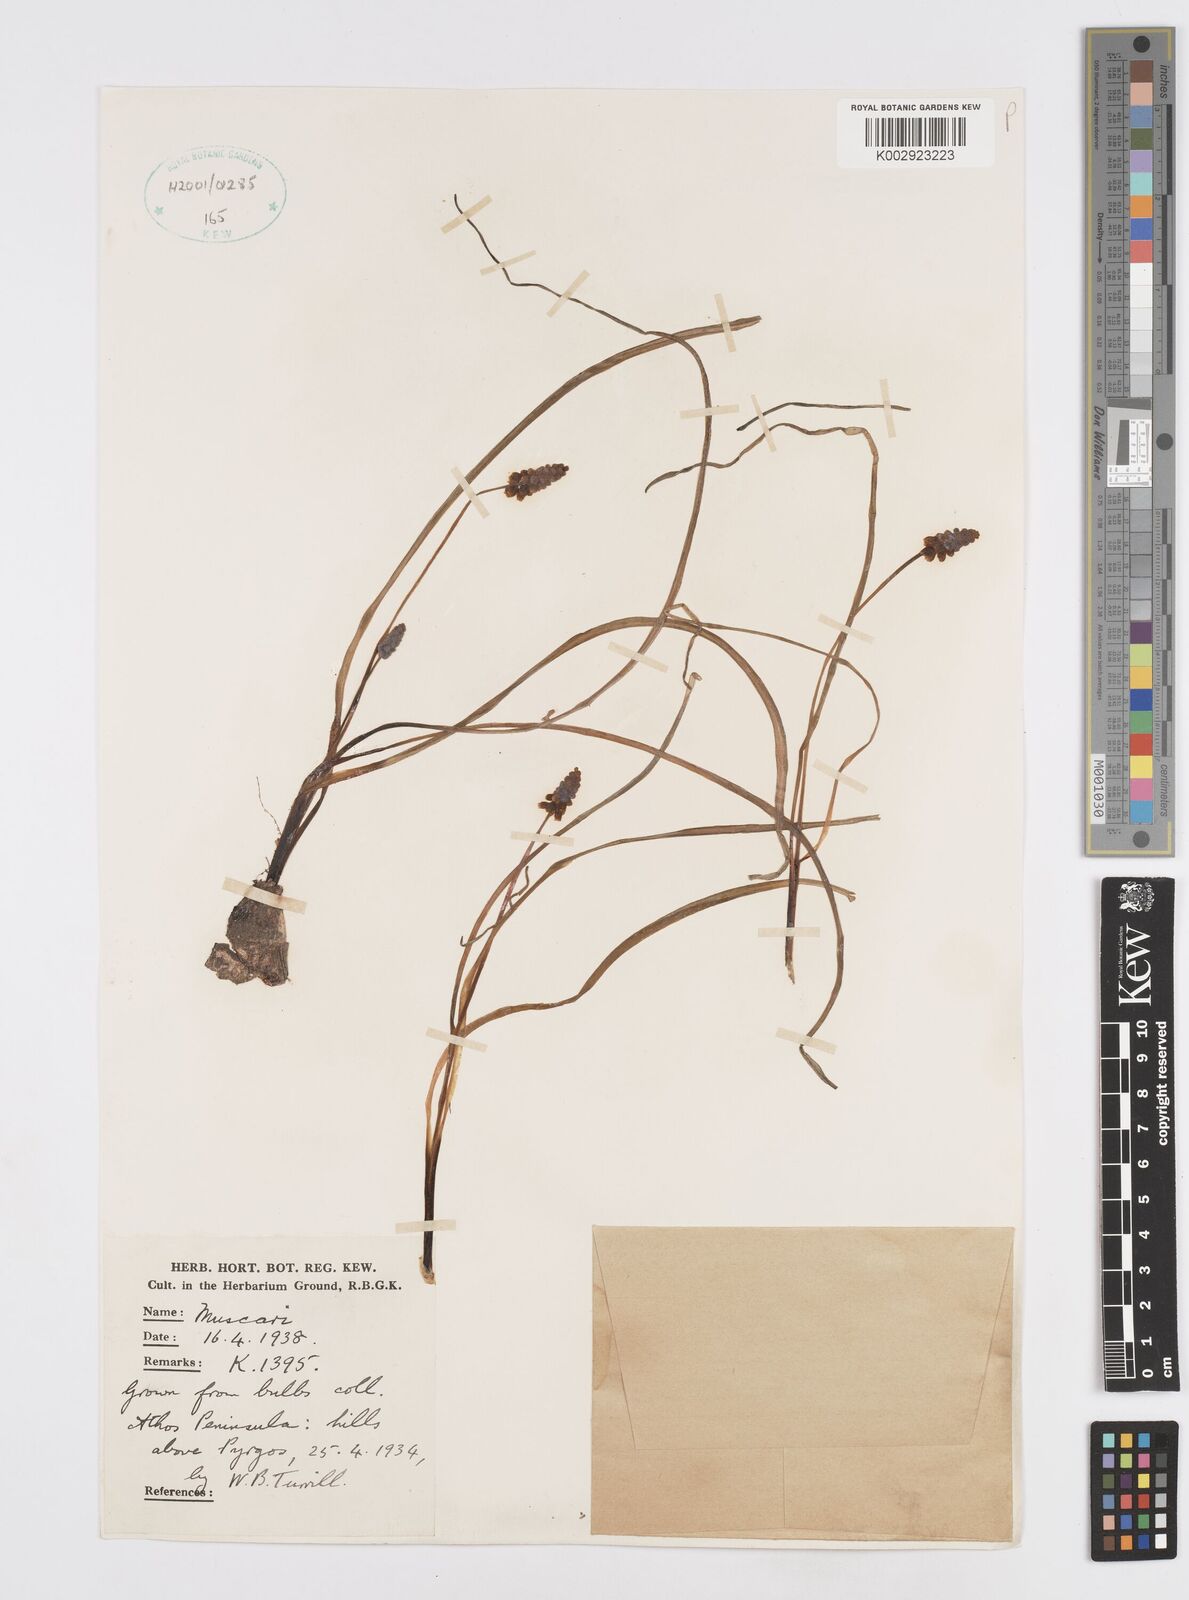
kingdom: Plantae
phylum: Tracheophyta
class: Liliopsida
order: Asparagales
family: Asparagaceae
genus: Muscari
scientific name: Muscari
